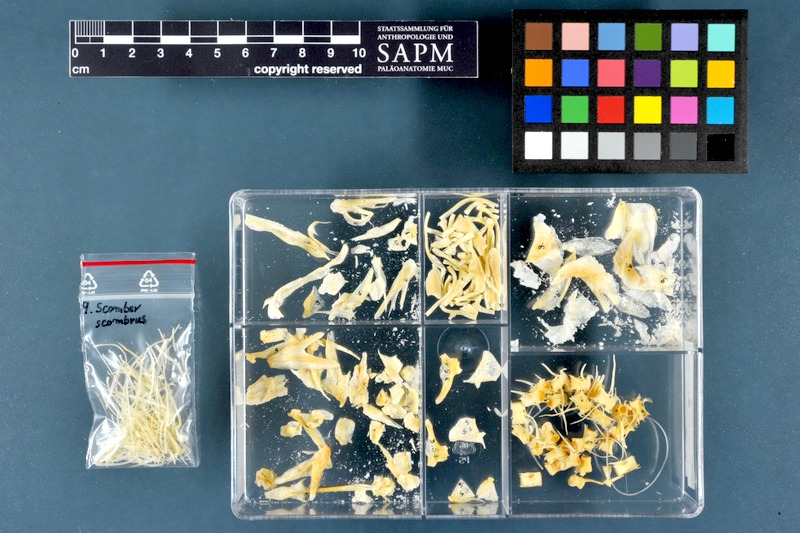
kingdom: Animalia
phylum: Chordata
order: Perciformes
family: Scombridae
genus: Scomber
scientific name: Scomber scombrus
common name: Mackerel
